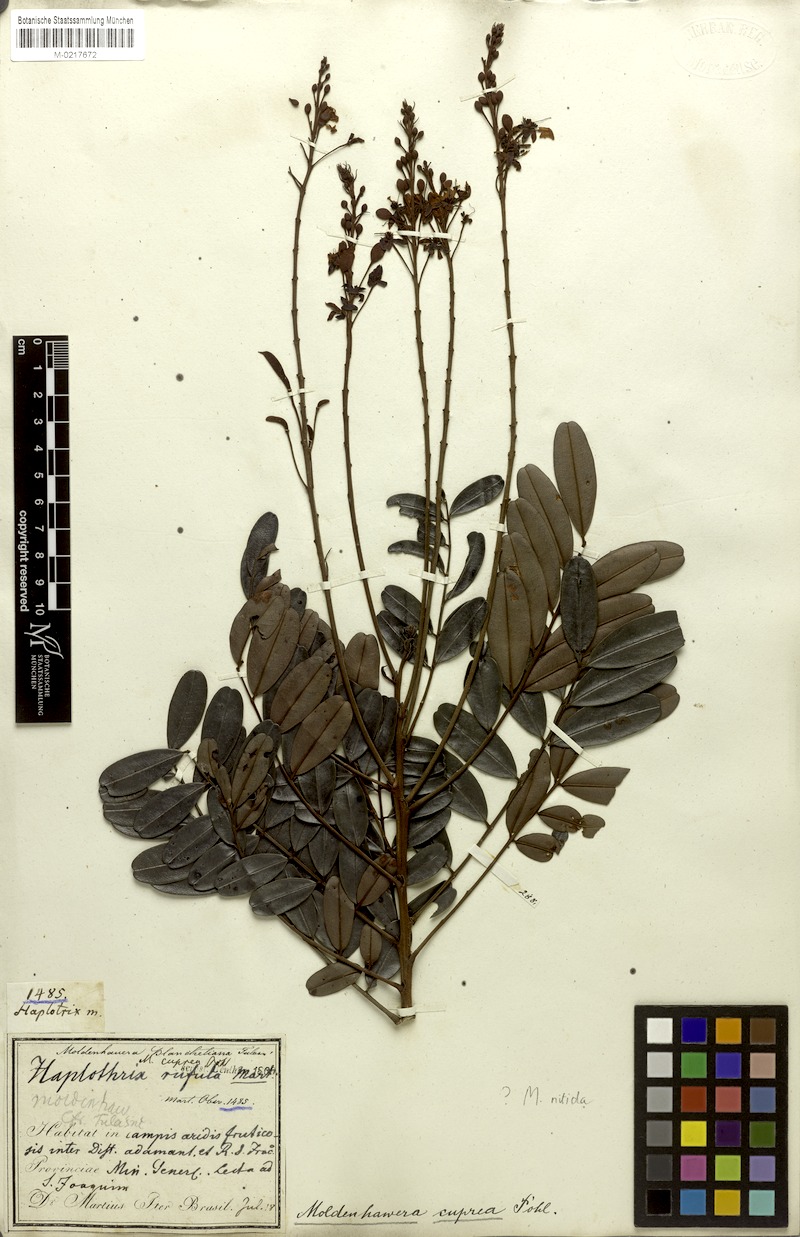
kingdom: Plantae
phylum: Tracheophyta
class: Magnoliopsida
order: Fabales
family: Fabaceae
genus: Moldenhawera
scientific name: Moldenhawera emarginata
